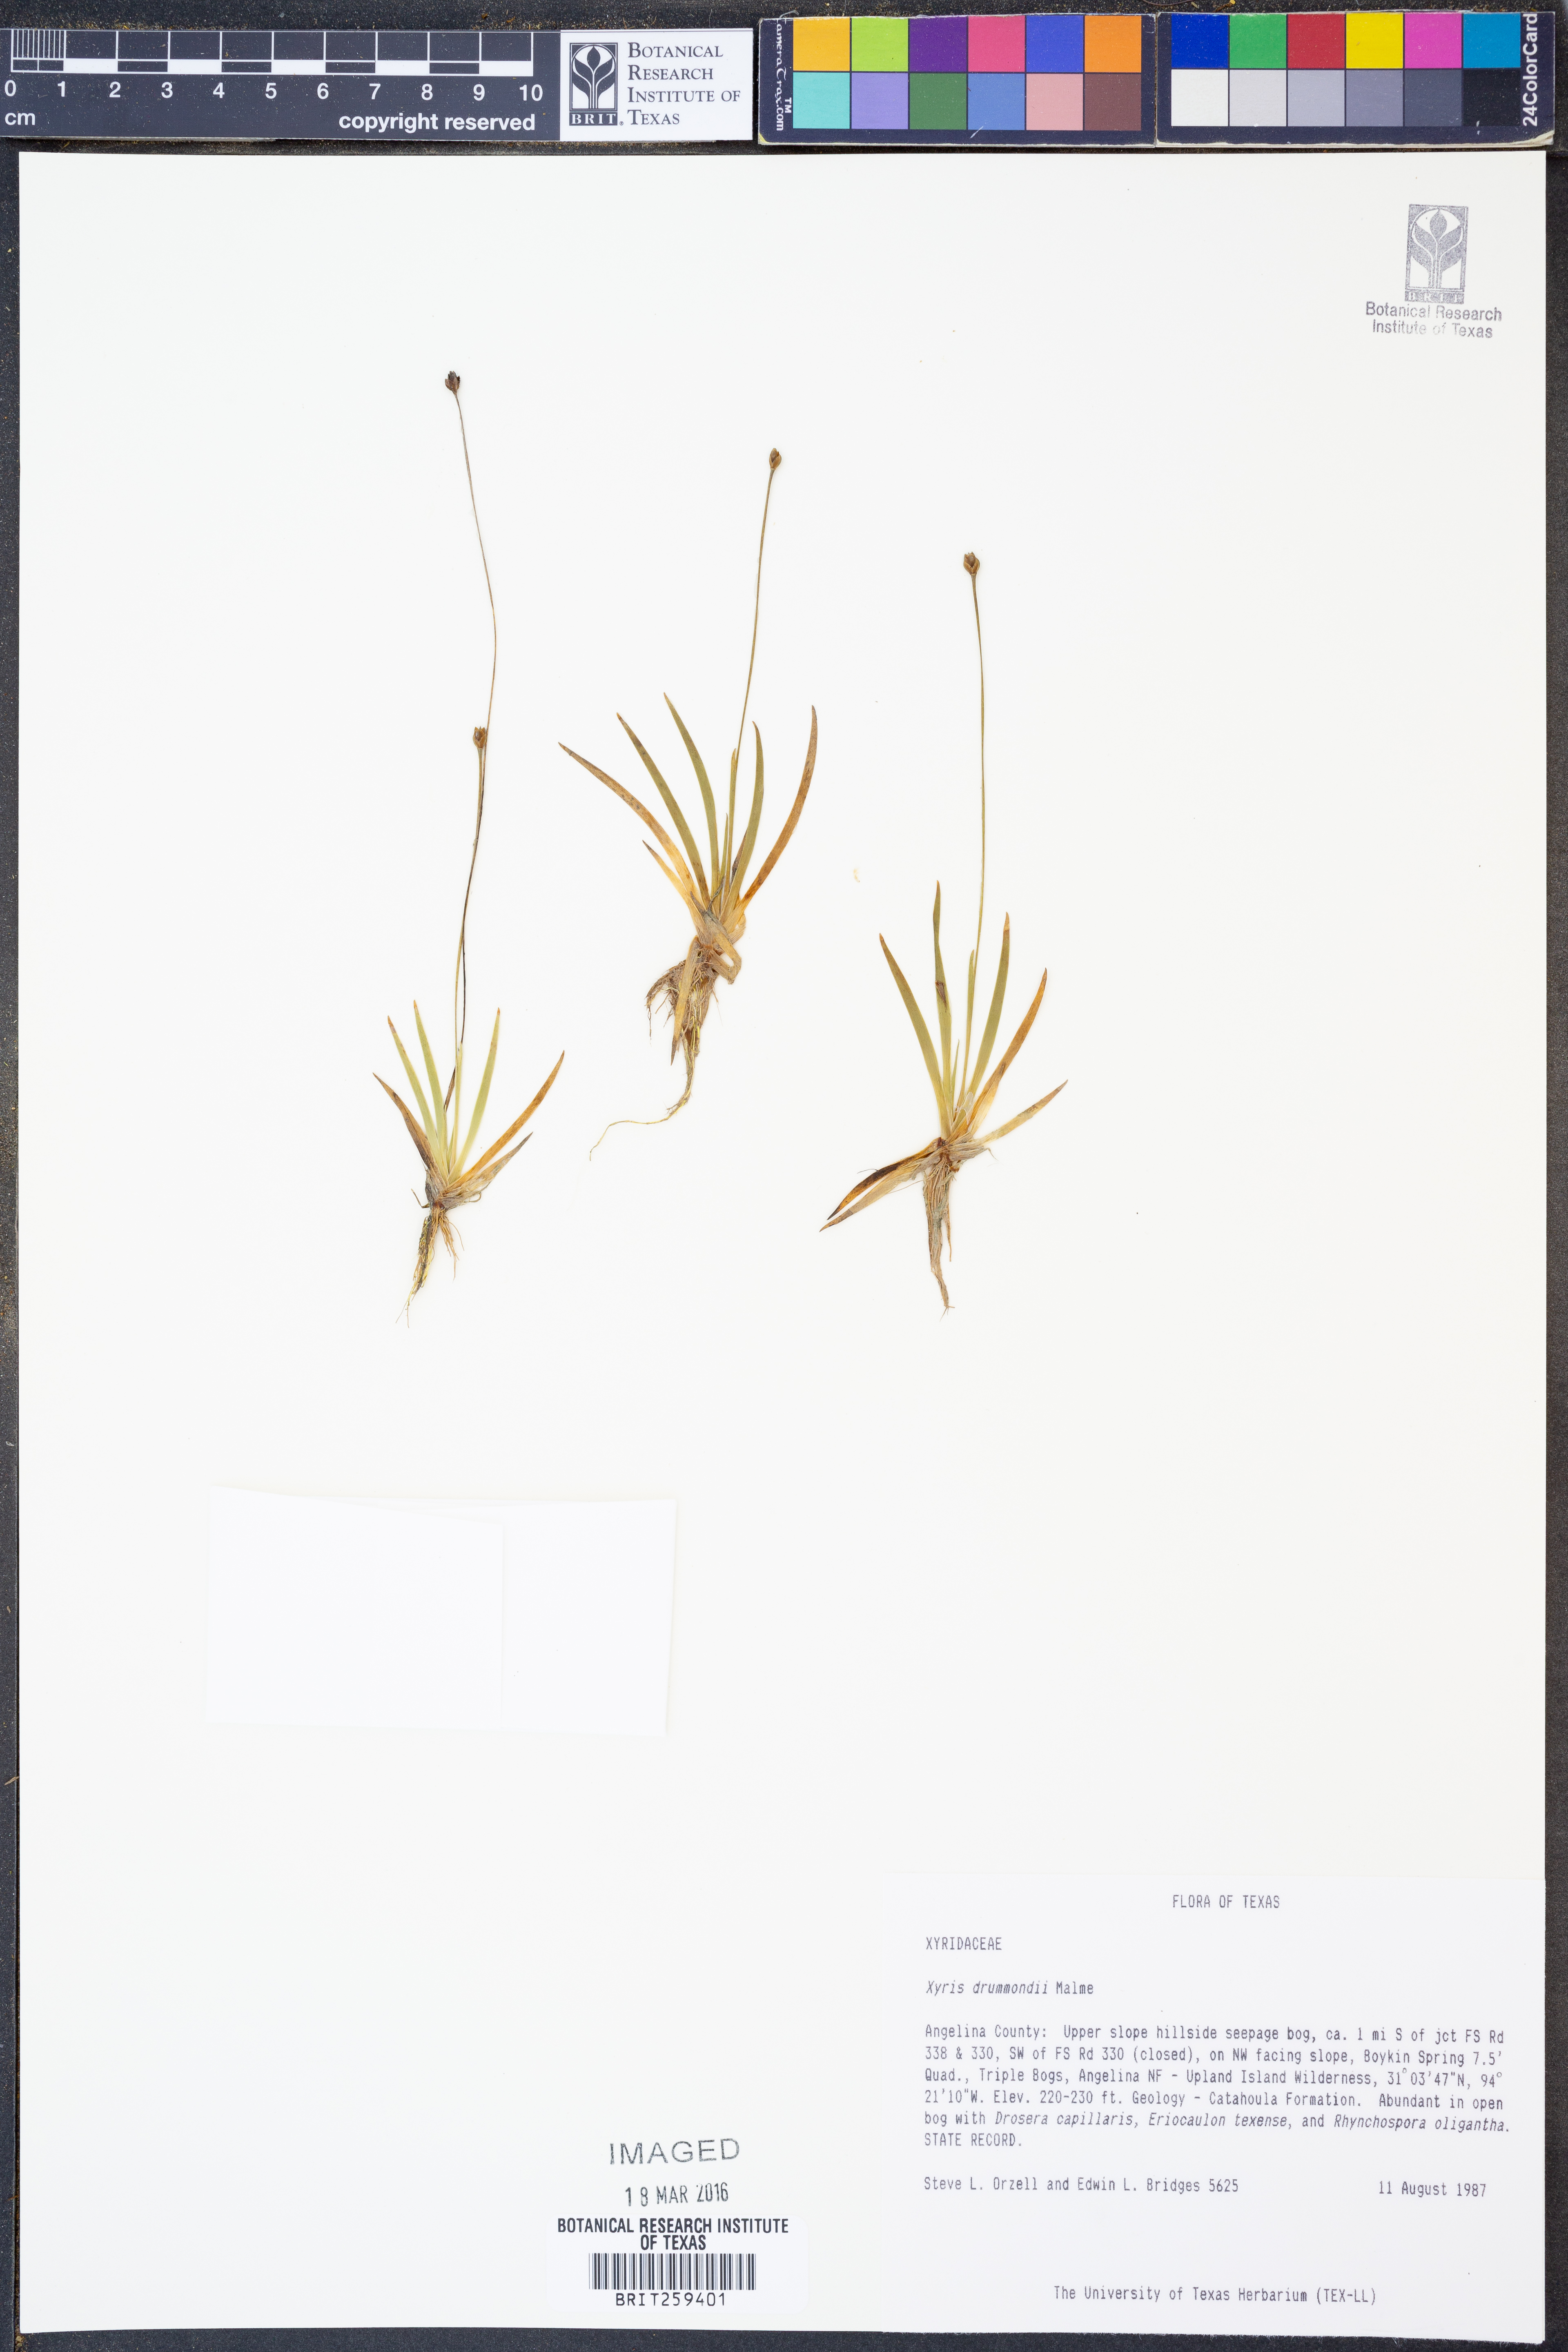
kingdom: Plantae
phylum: Tracheophyta
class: Liliopsida
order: Poales
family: Xyridaceae
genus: Xyris
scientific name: Xyris drummondii
